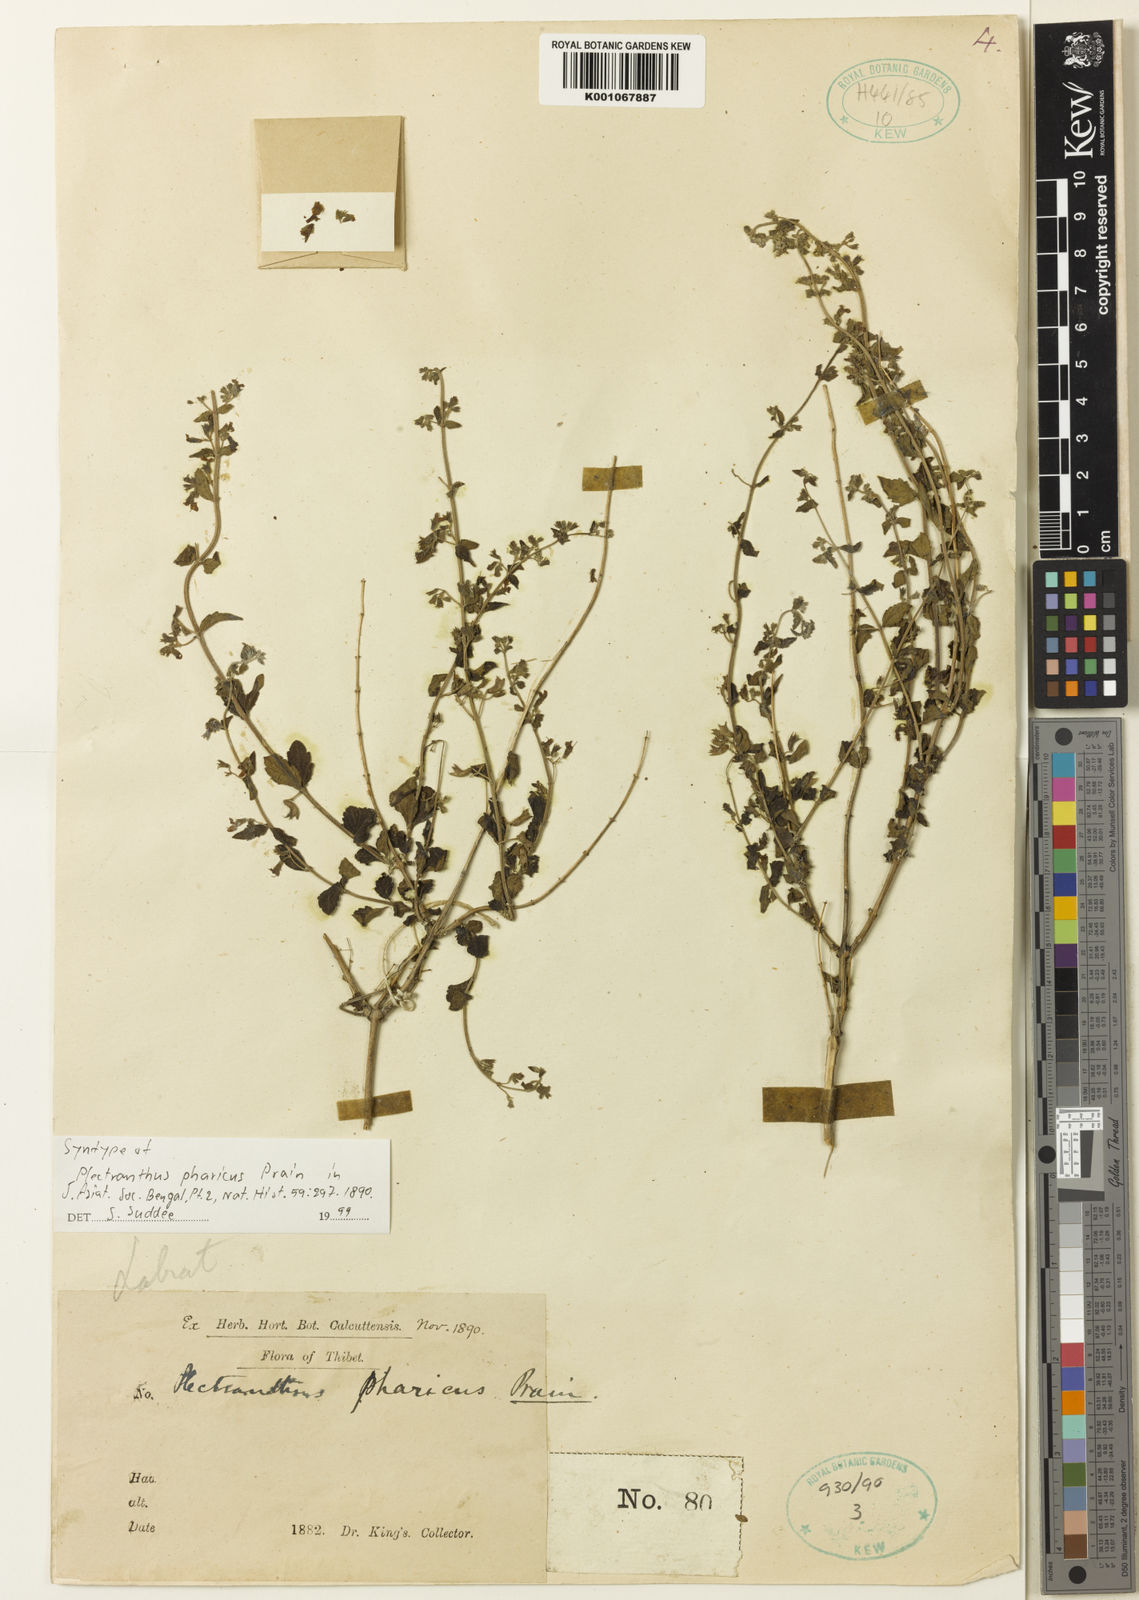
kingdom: Plantae
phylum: Tracheophyta
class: Magnoliopsida
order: Lamiales
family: Lamiaceae
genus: Isodon
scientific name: Isodon pharicus
